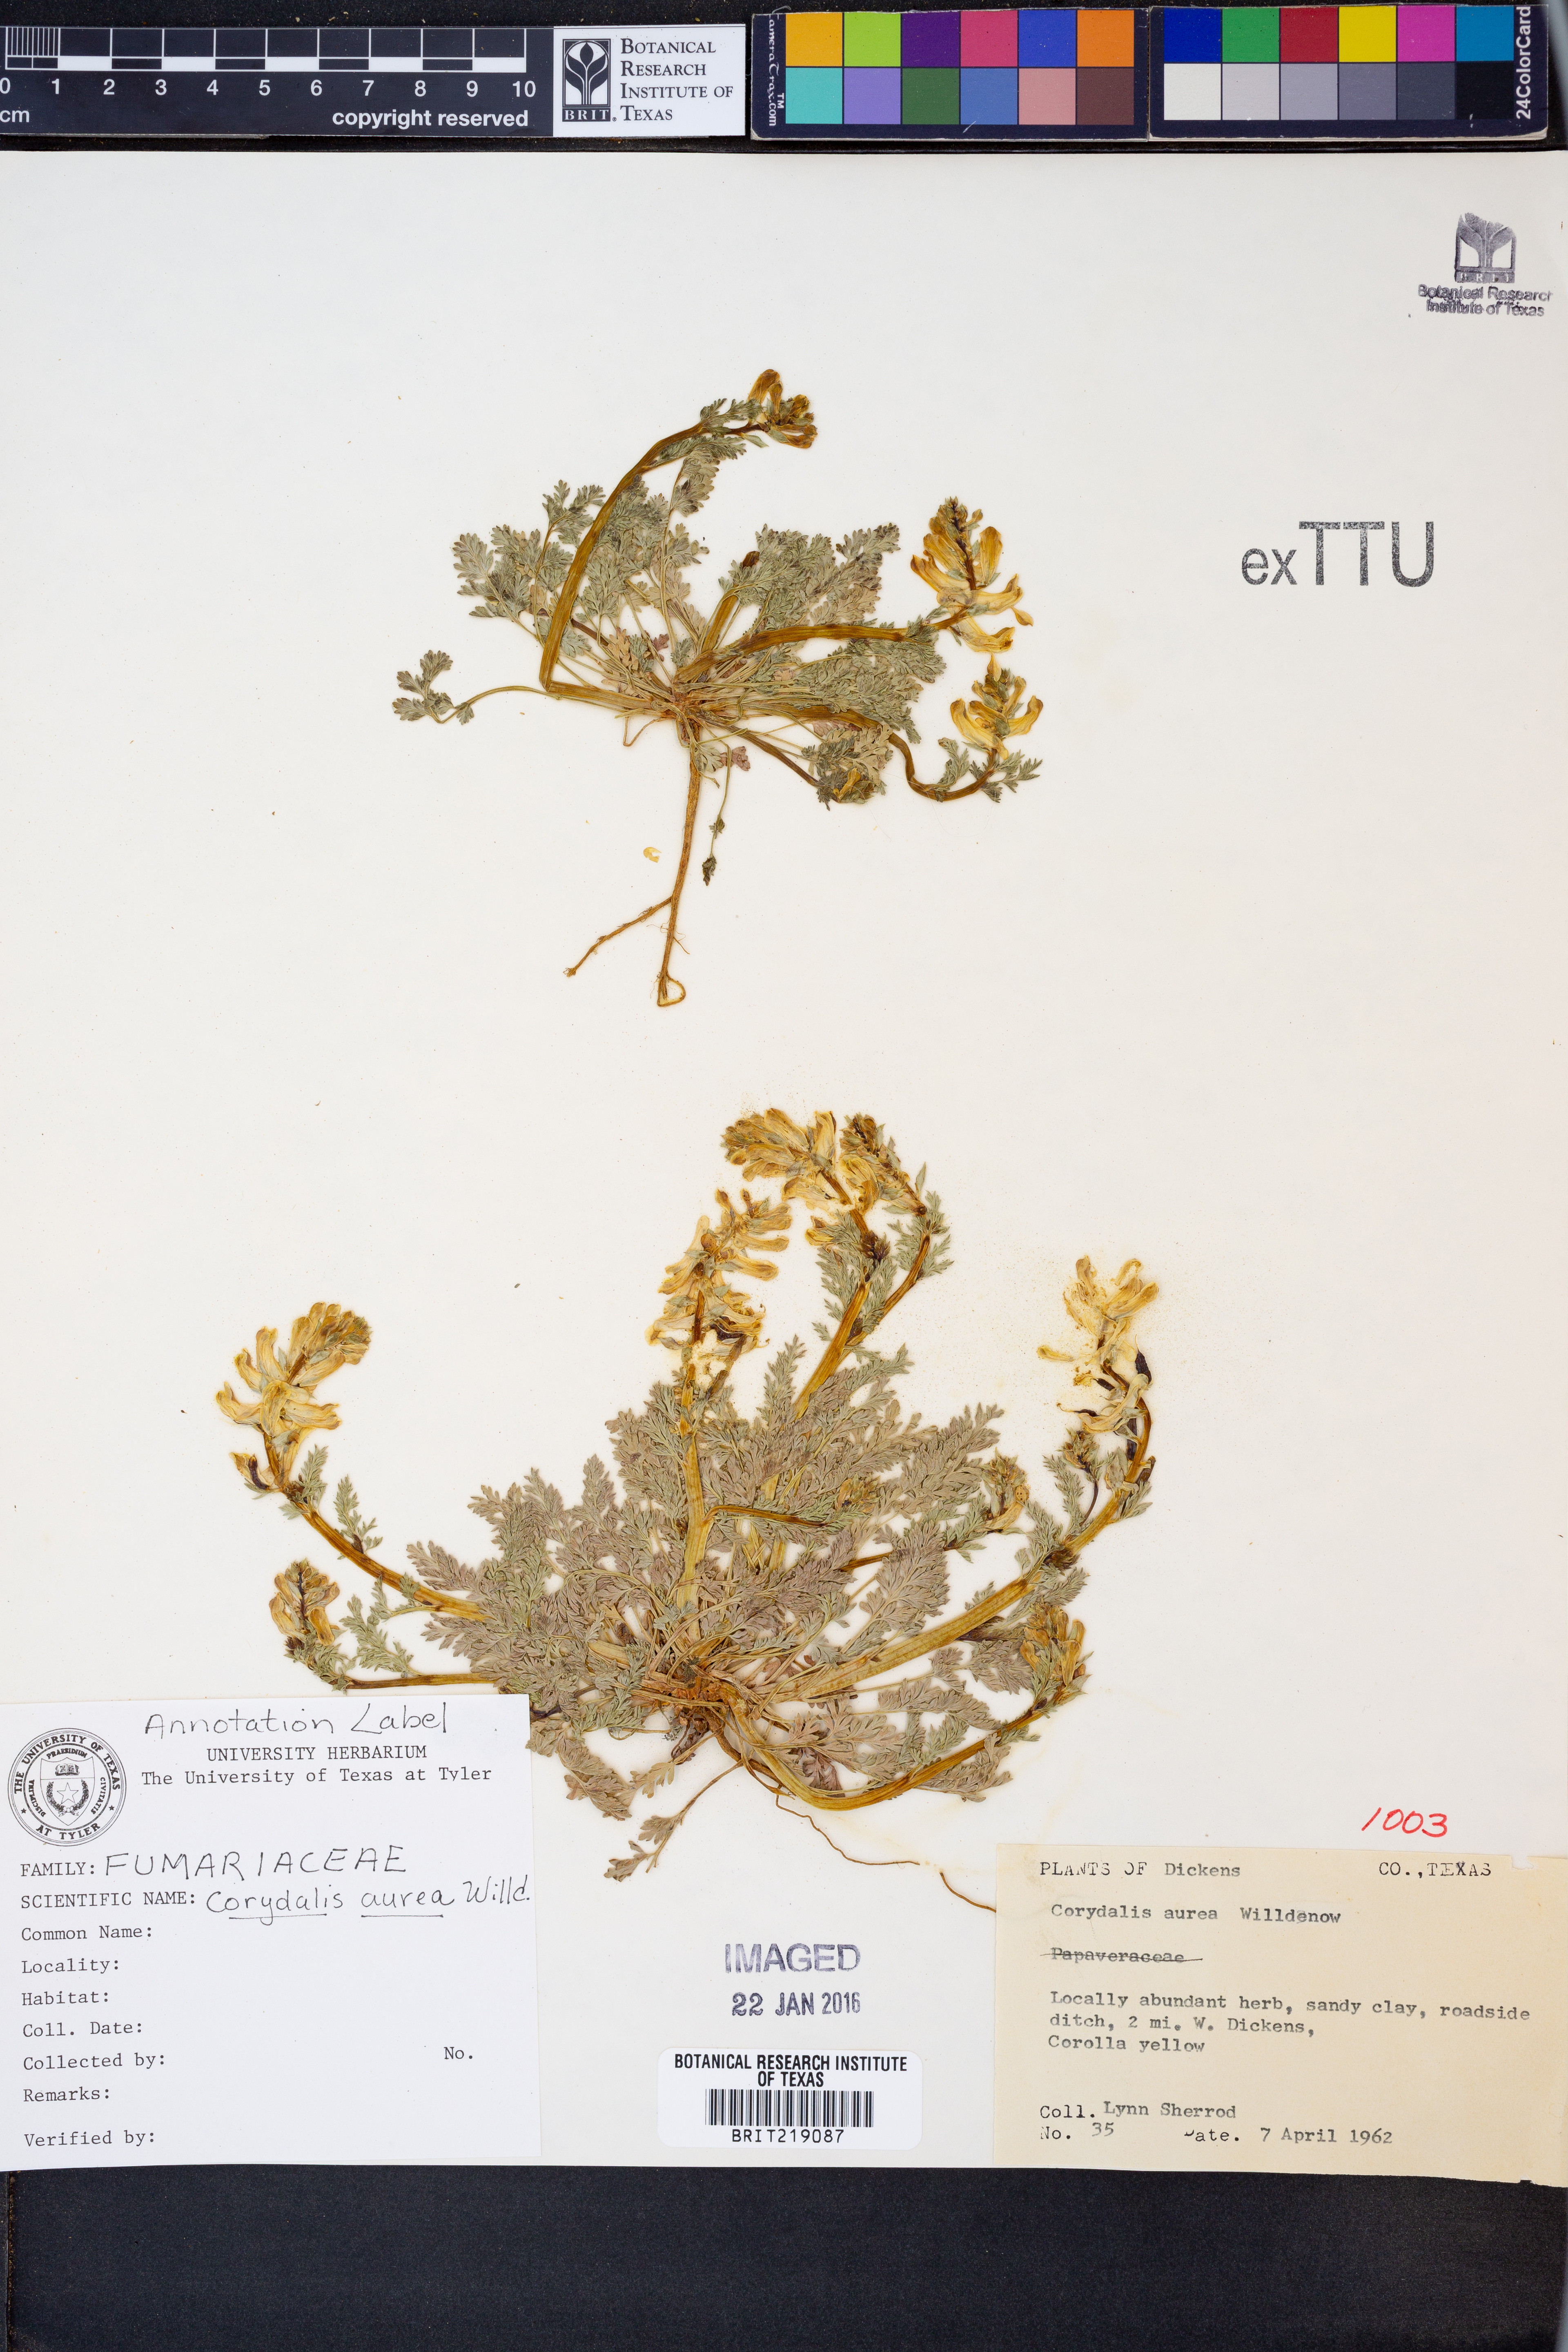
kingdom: Plantae
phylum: Tracheophyta
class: Magnoliopsida
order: Ranunculales
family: Papaveraceae
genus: Corydalis
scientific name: Corydalis aurea
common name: Golden corydalis
